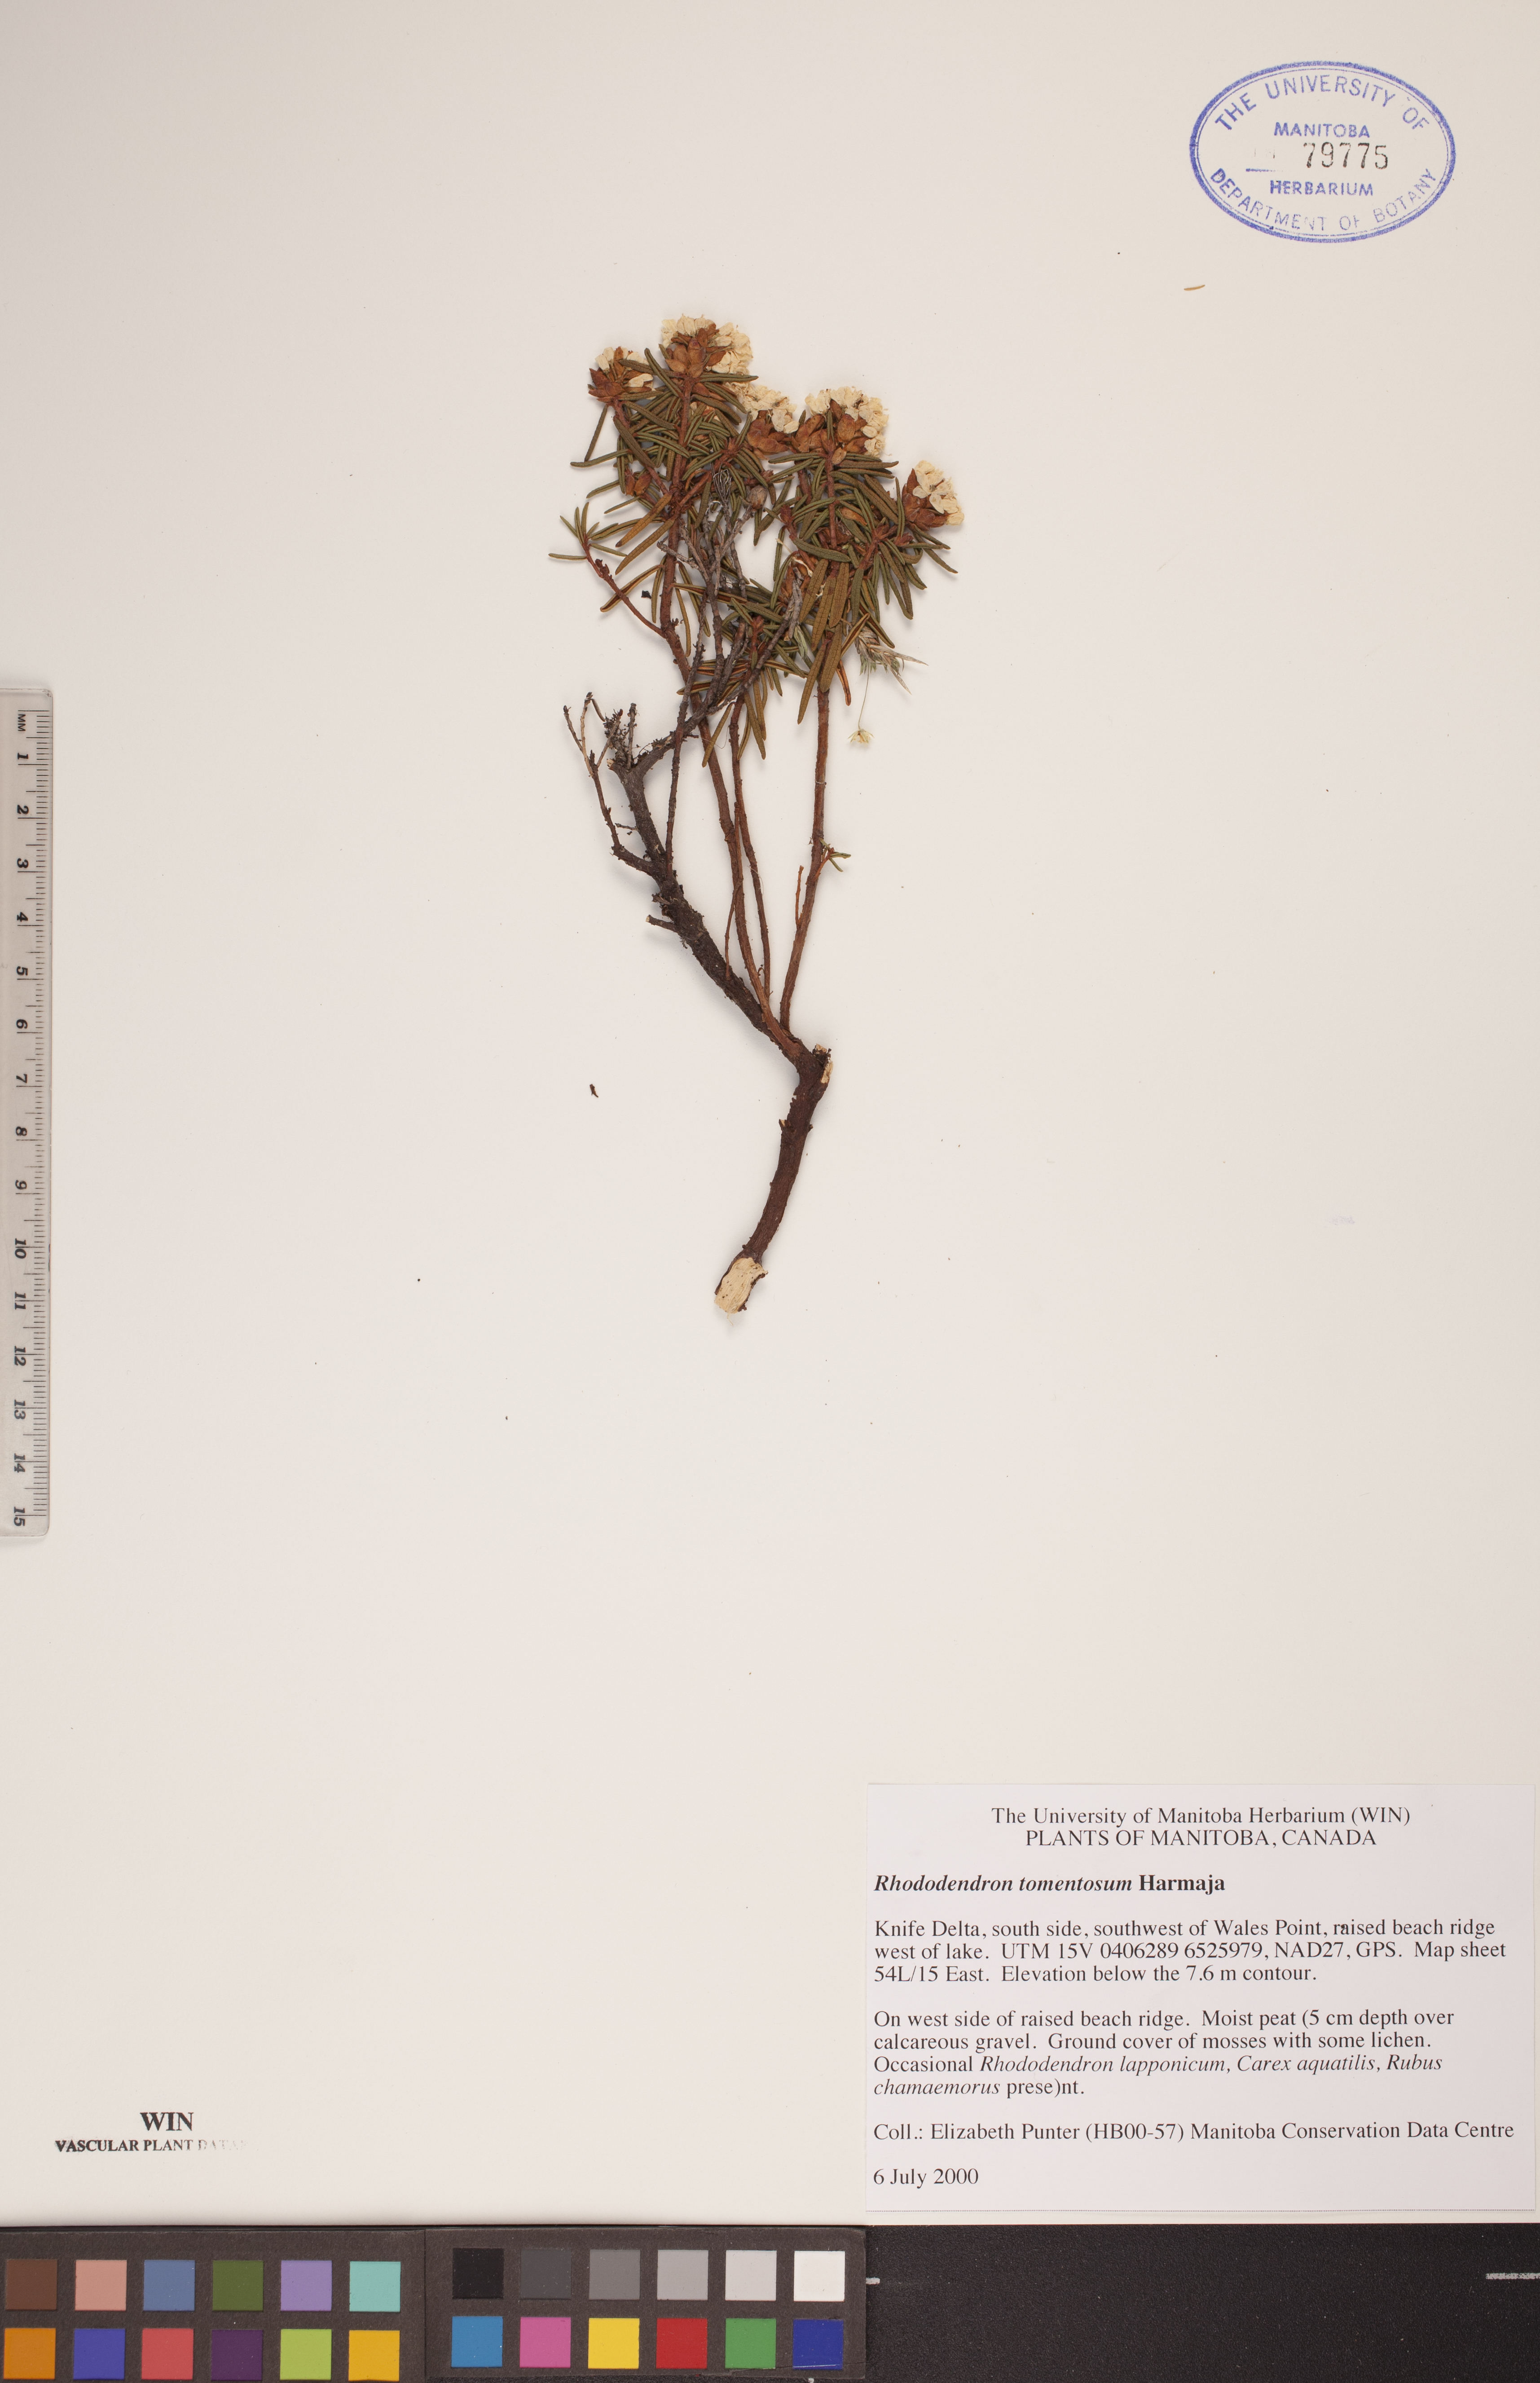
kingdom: Plantae
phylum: Tracheophyta
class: Magnoliopsida
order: Ericales
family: Ericaceae
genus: Rhododendron
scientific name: Rhododendron tomentosum
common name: Marsh labrador tea
